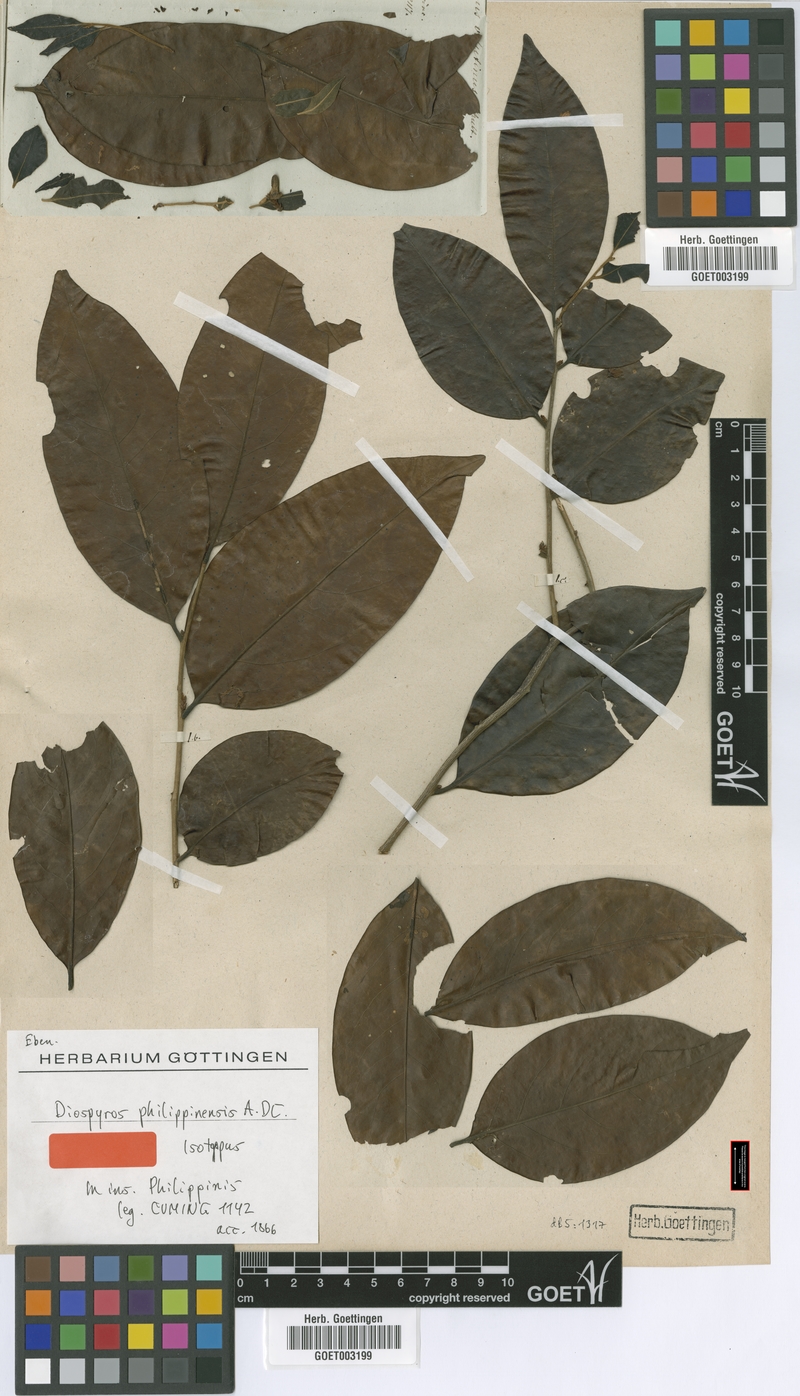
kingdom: Plantae
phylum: Tracheophyta
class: Magnoliopsida
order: Ericales
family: Ebenaceae
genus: Diospyros
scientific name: Diospyros philippinensis
